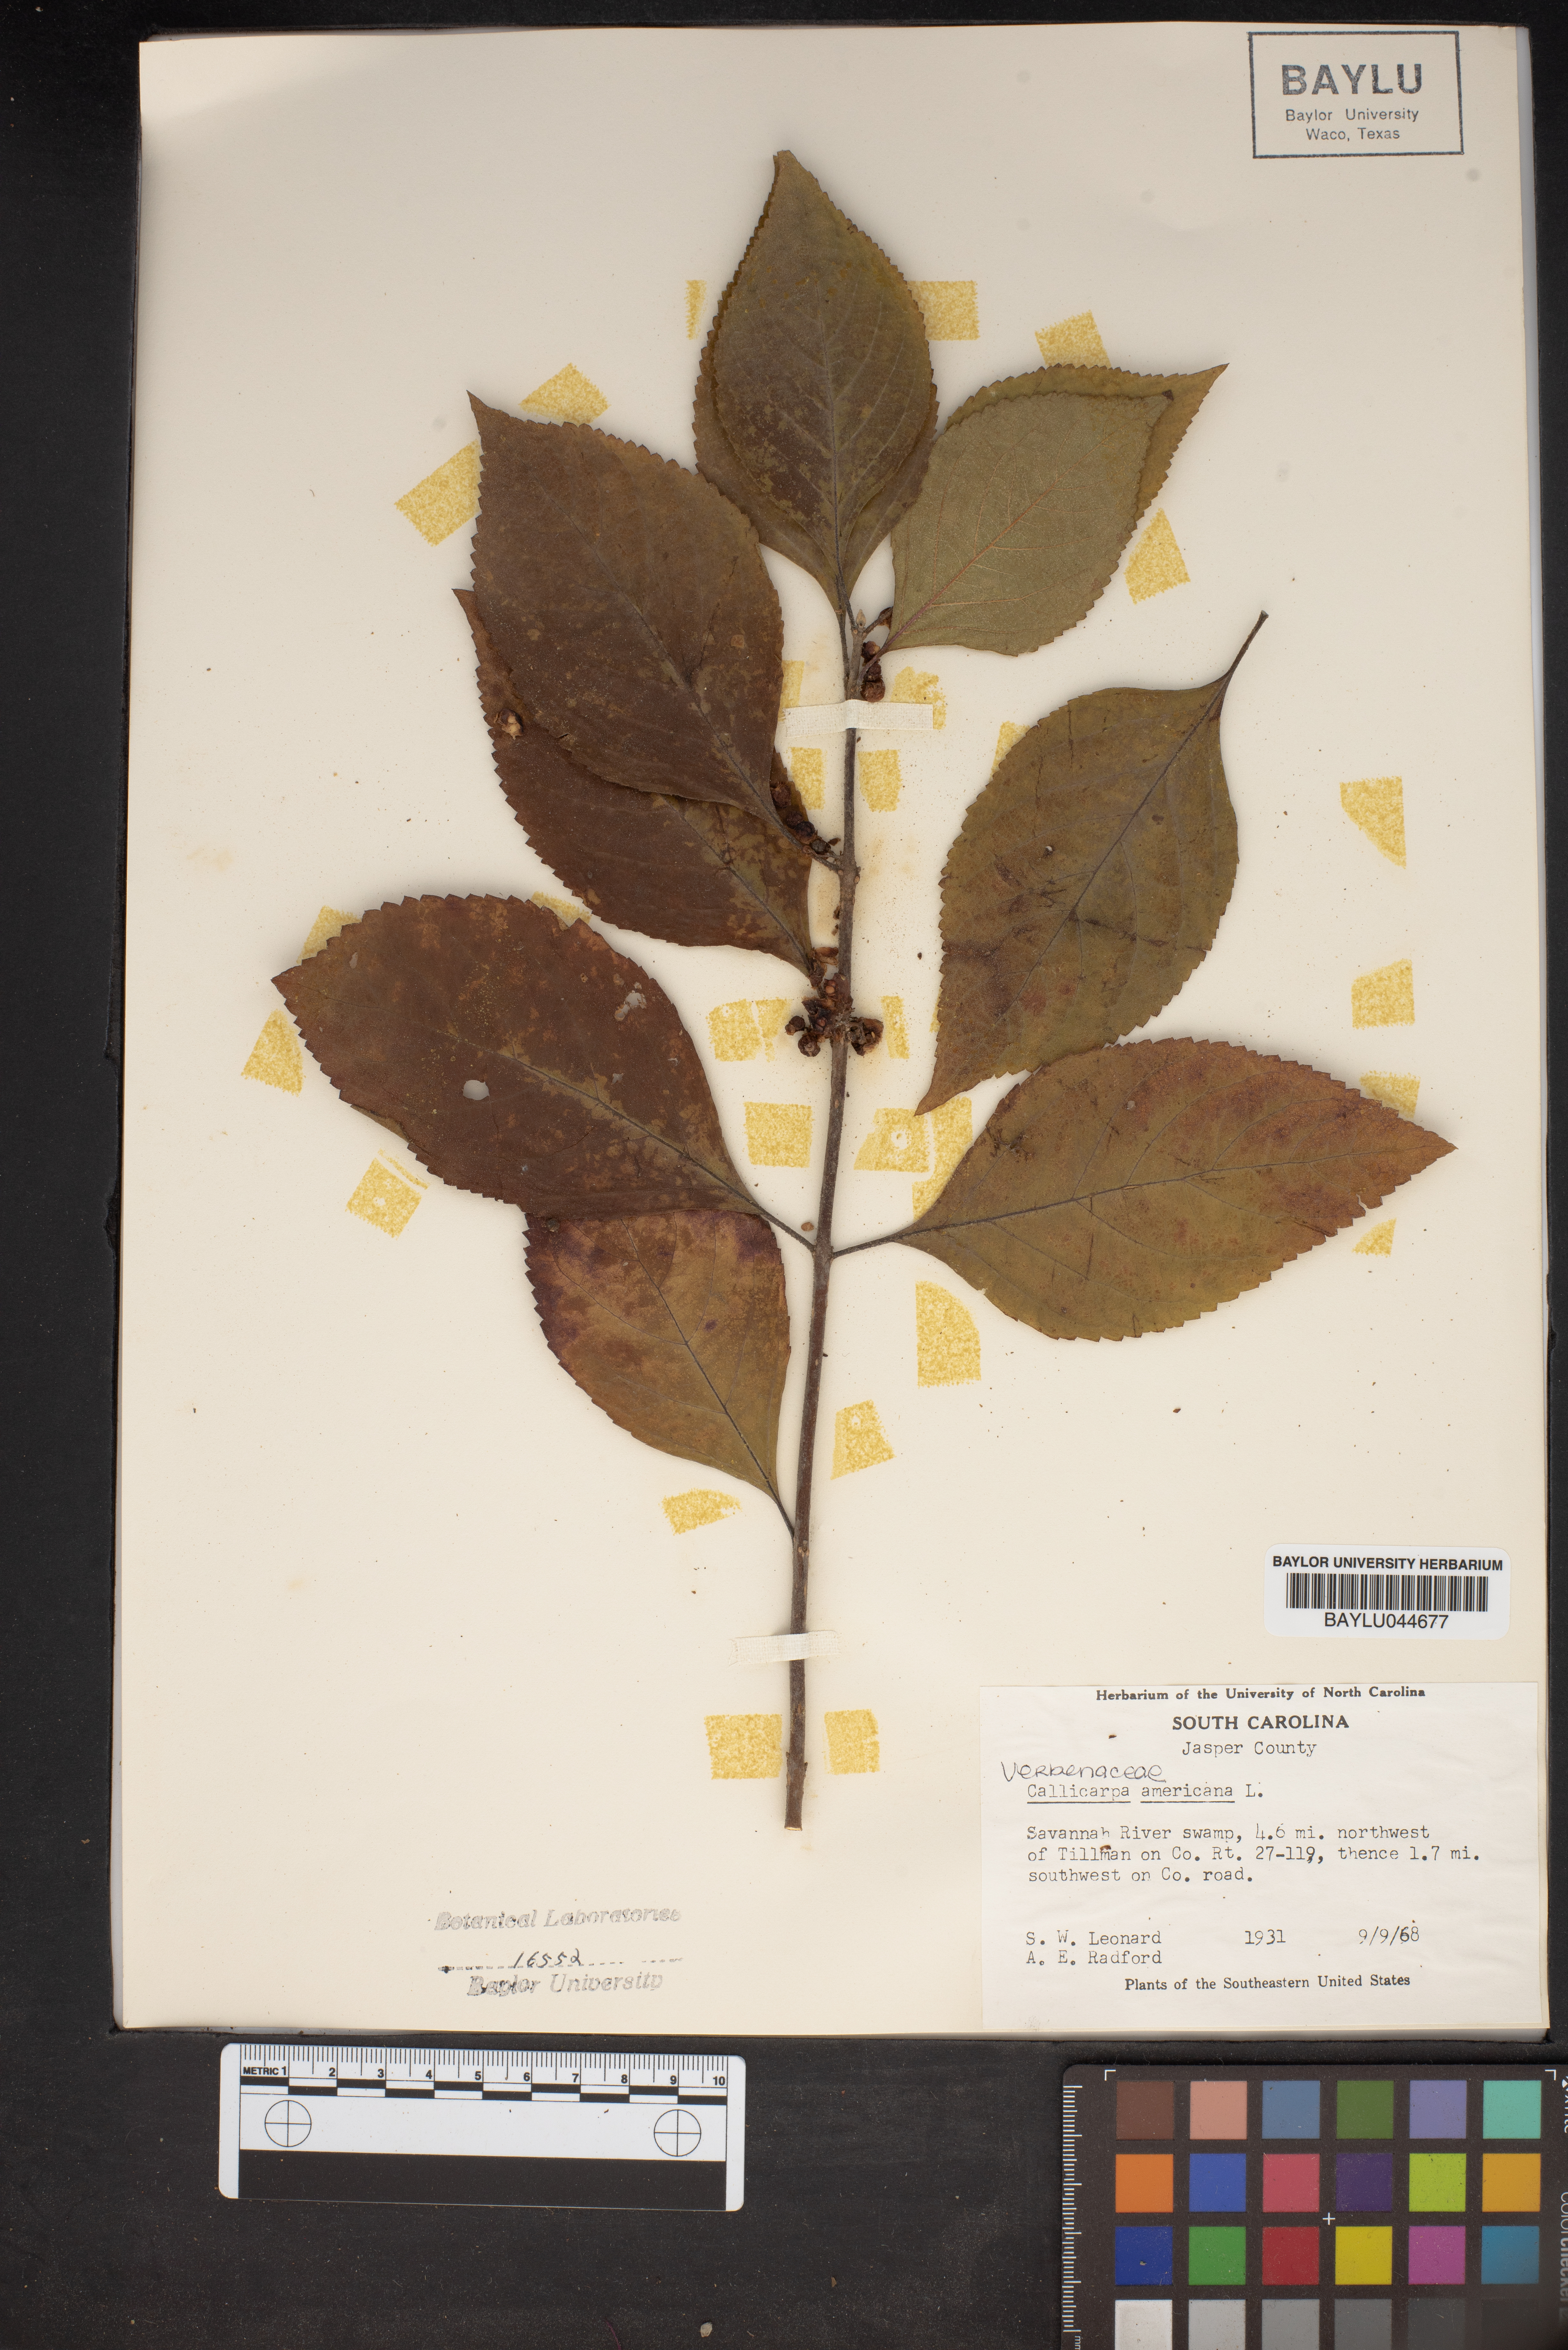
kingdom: Plantae
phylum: Tracheophyta
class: Magnoliopsida
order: Lamiales
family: Lamiaceae
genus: Callicarpa
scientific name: Callicarpa americana
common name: American beautyberry
